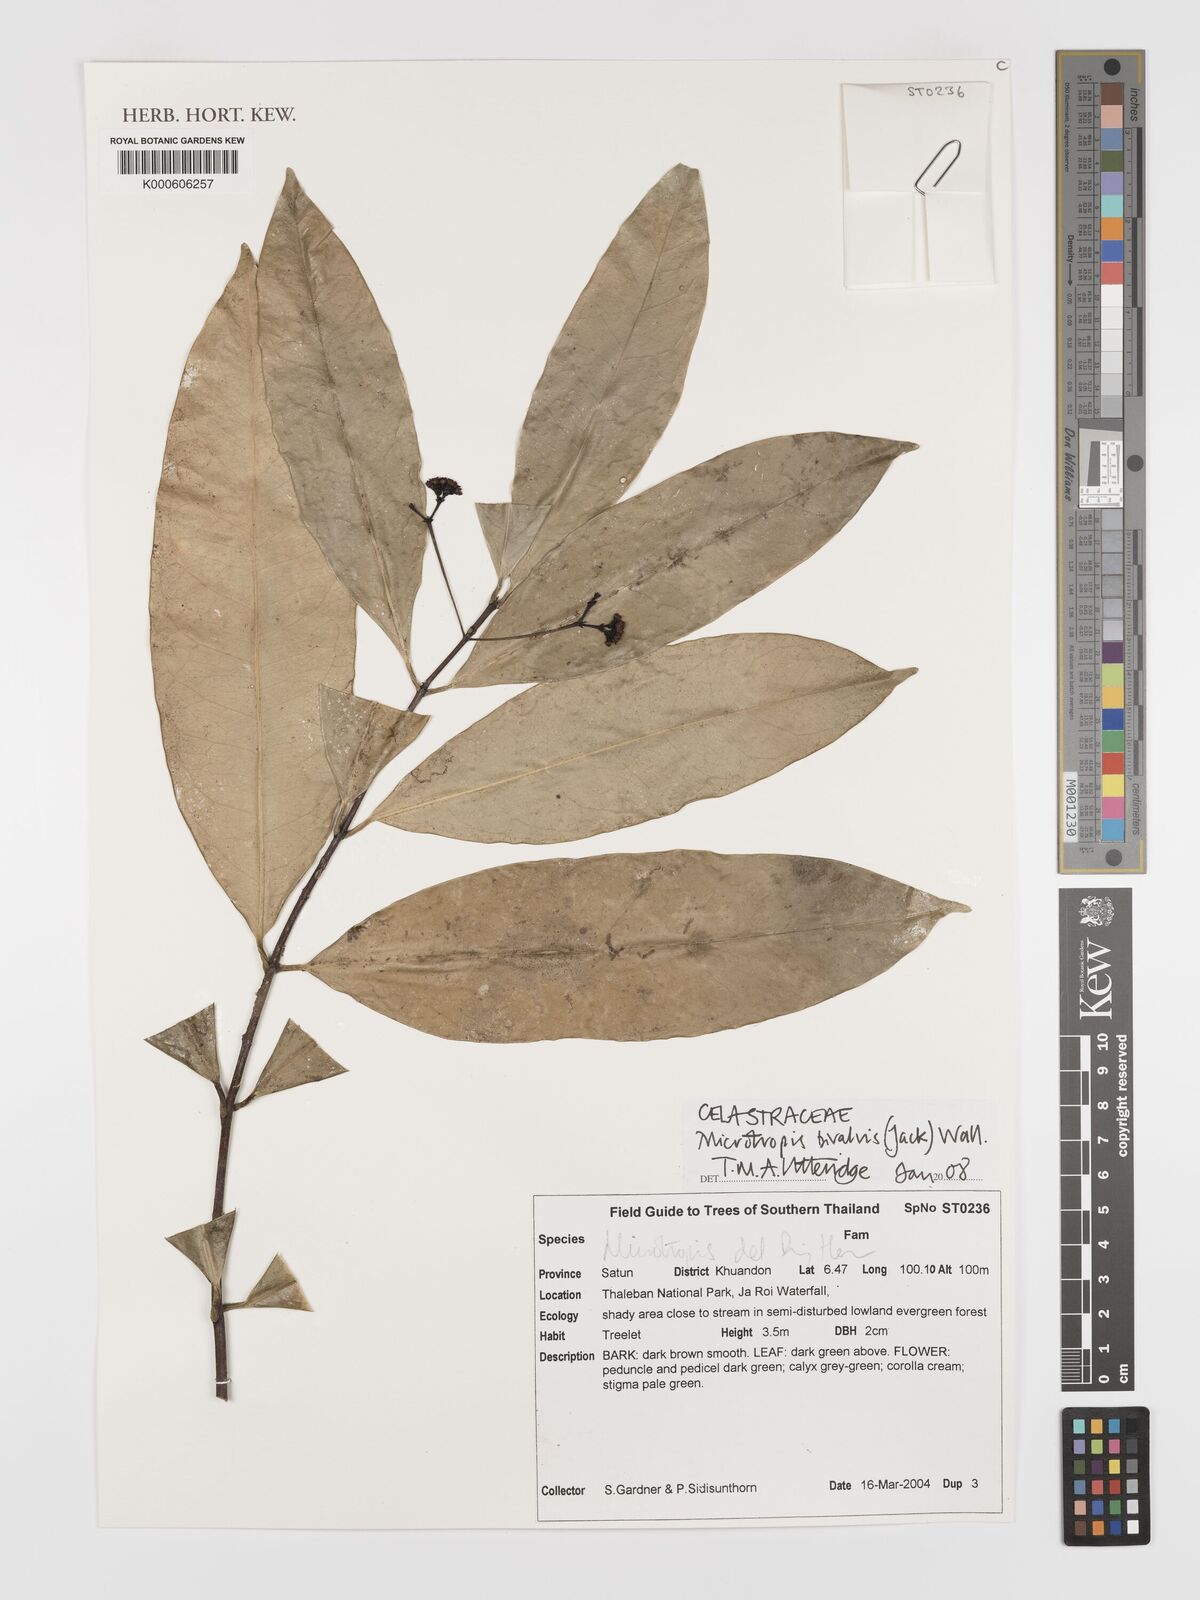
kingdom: Plantae
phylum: Tracheophyta
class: Magnoliopsida
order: Celastrales
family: Celastraceae
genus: Microtropis
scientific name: Microtropis bivalvis
